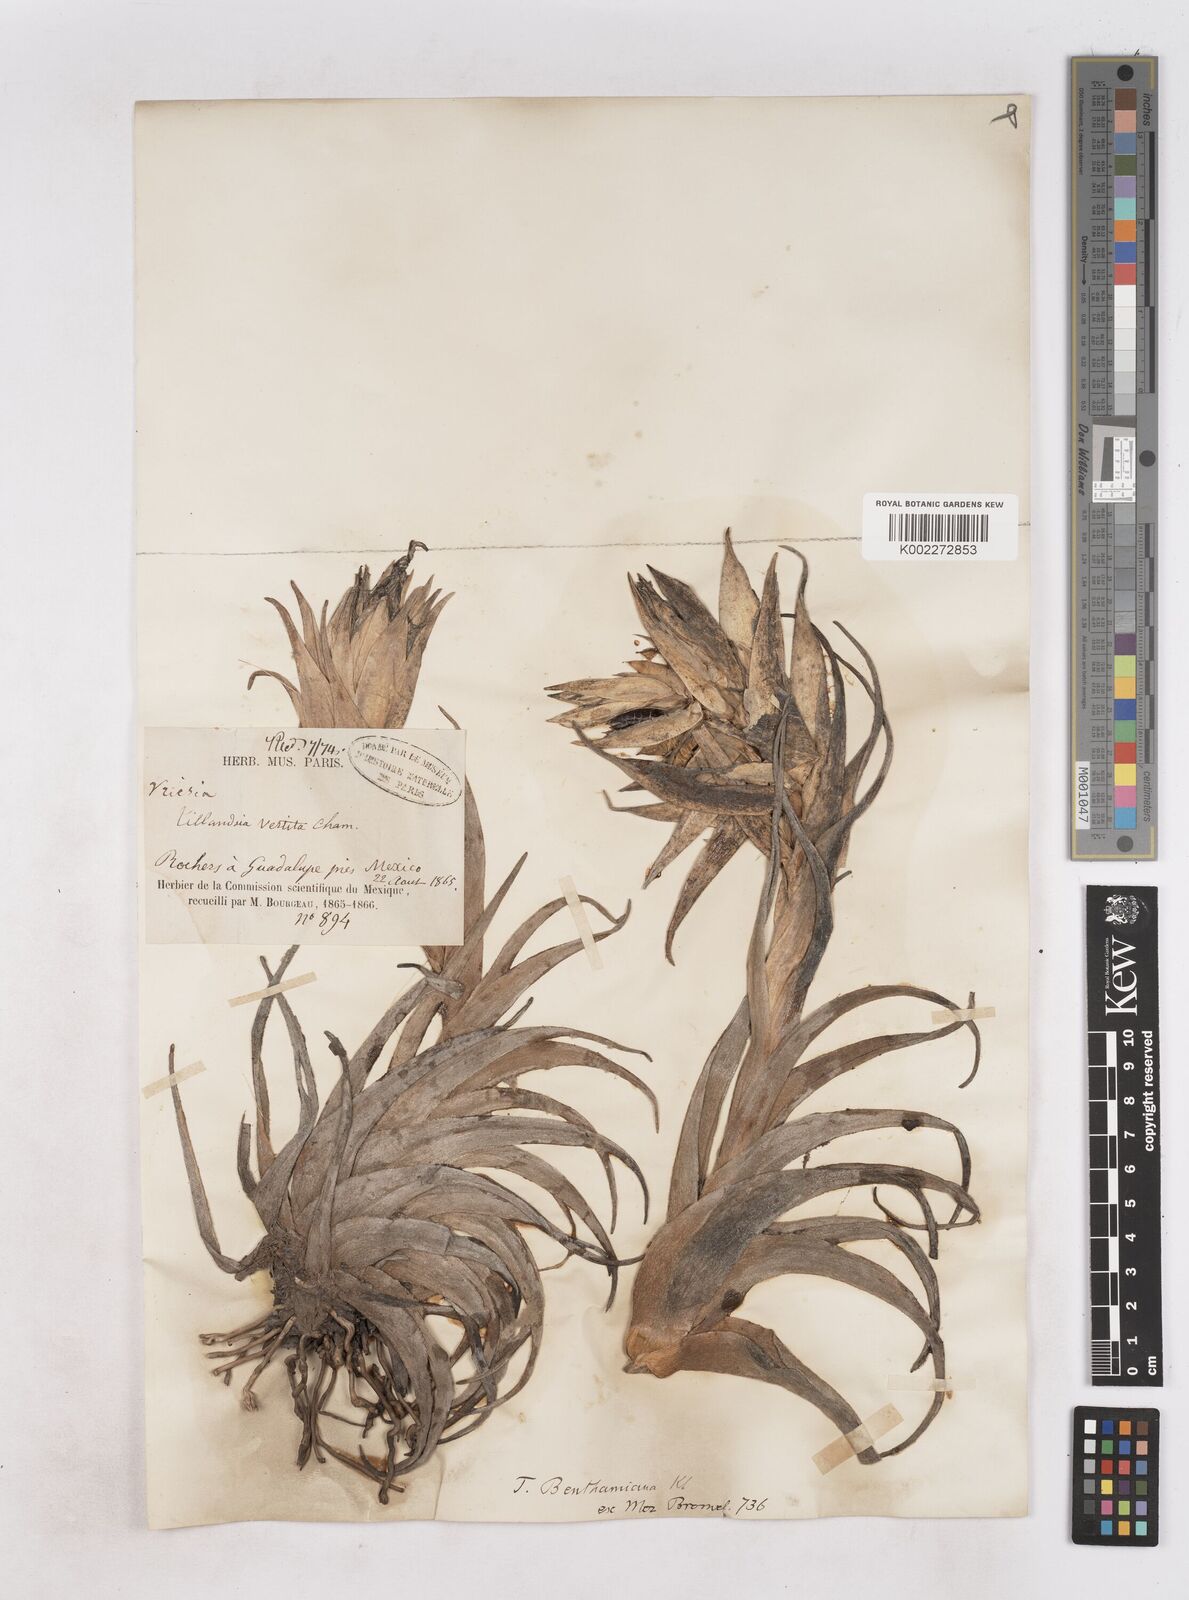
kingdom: Plantae
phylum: Tracheophyta
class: Liliopsida
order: Poales
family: Bromeliaceae
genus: Tillandsia
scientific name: Tillandsia erubescens
